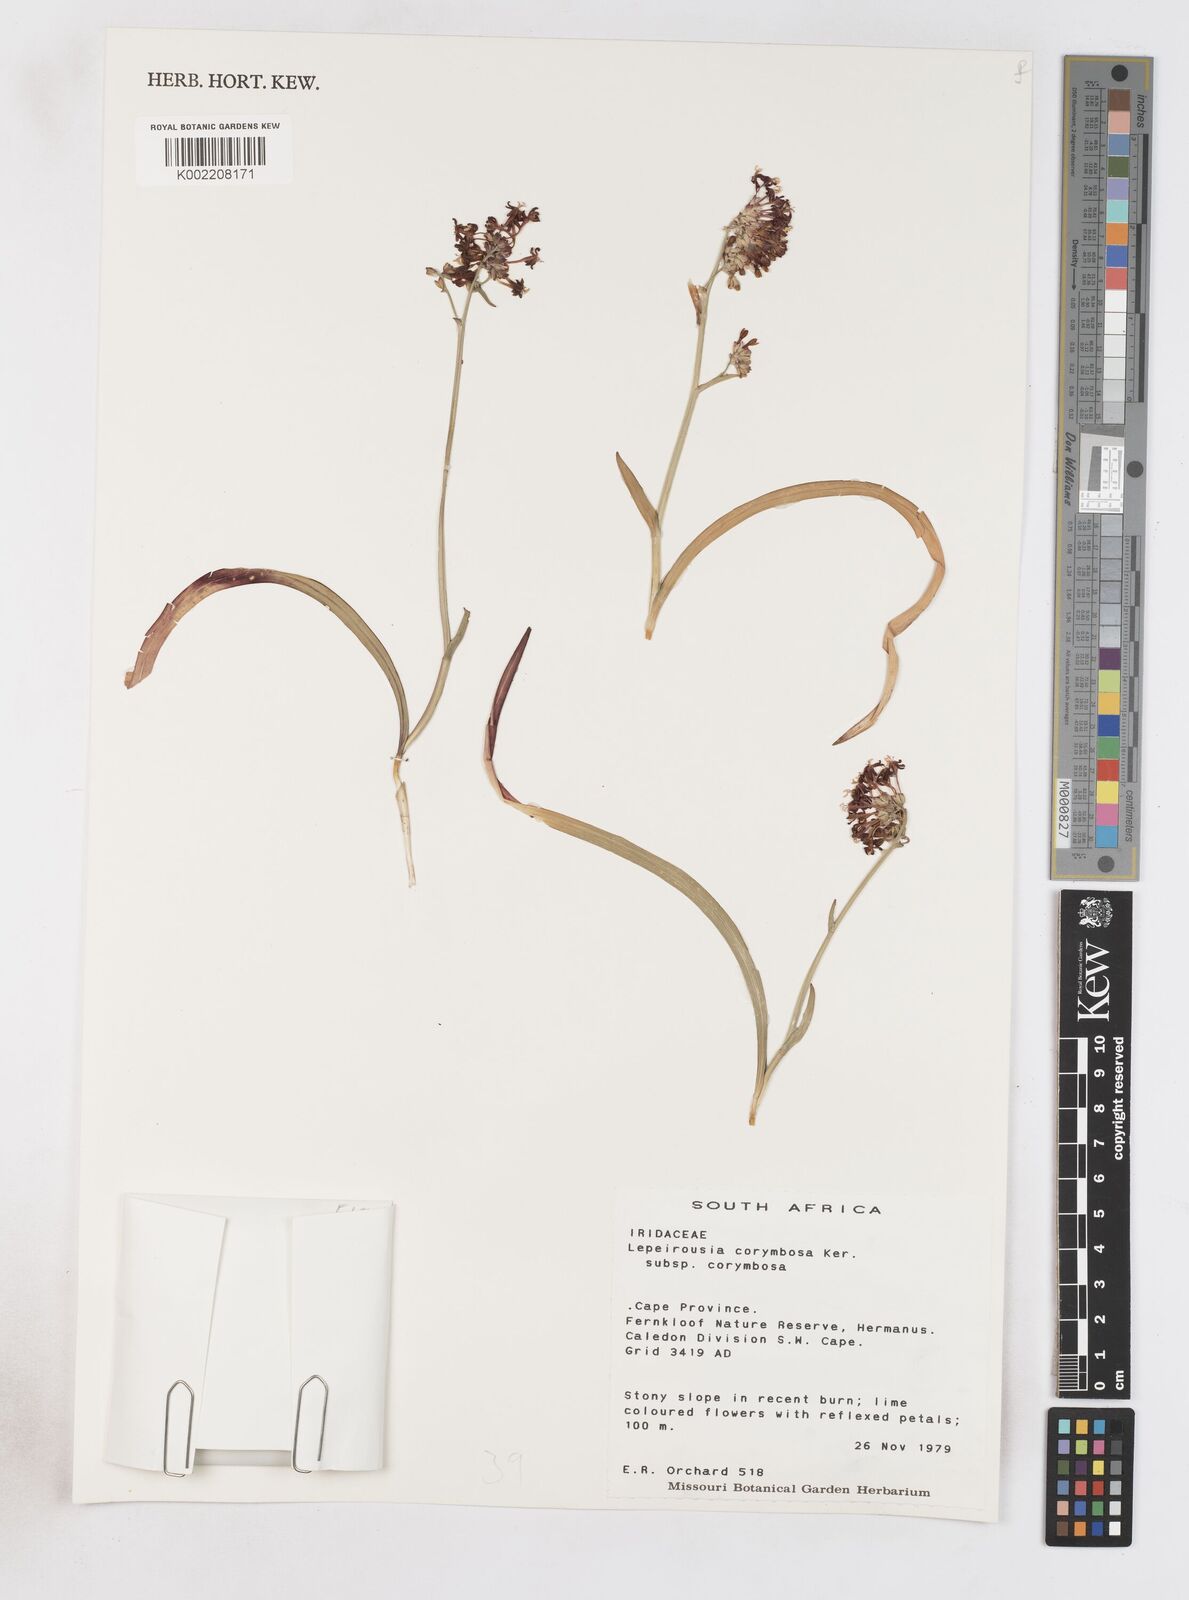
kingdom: Plantae
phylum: Tracheophyta
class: Liliopsida
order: Asparagales
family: Iridaceae
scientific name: Iridaceae
